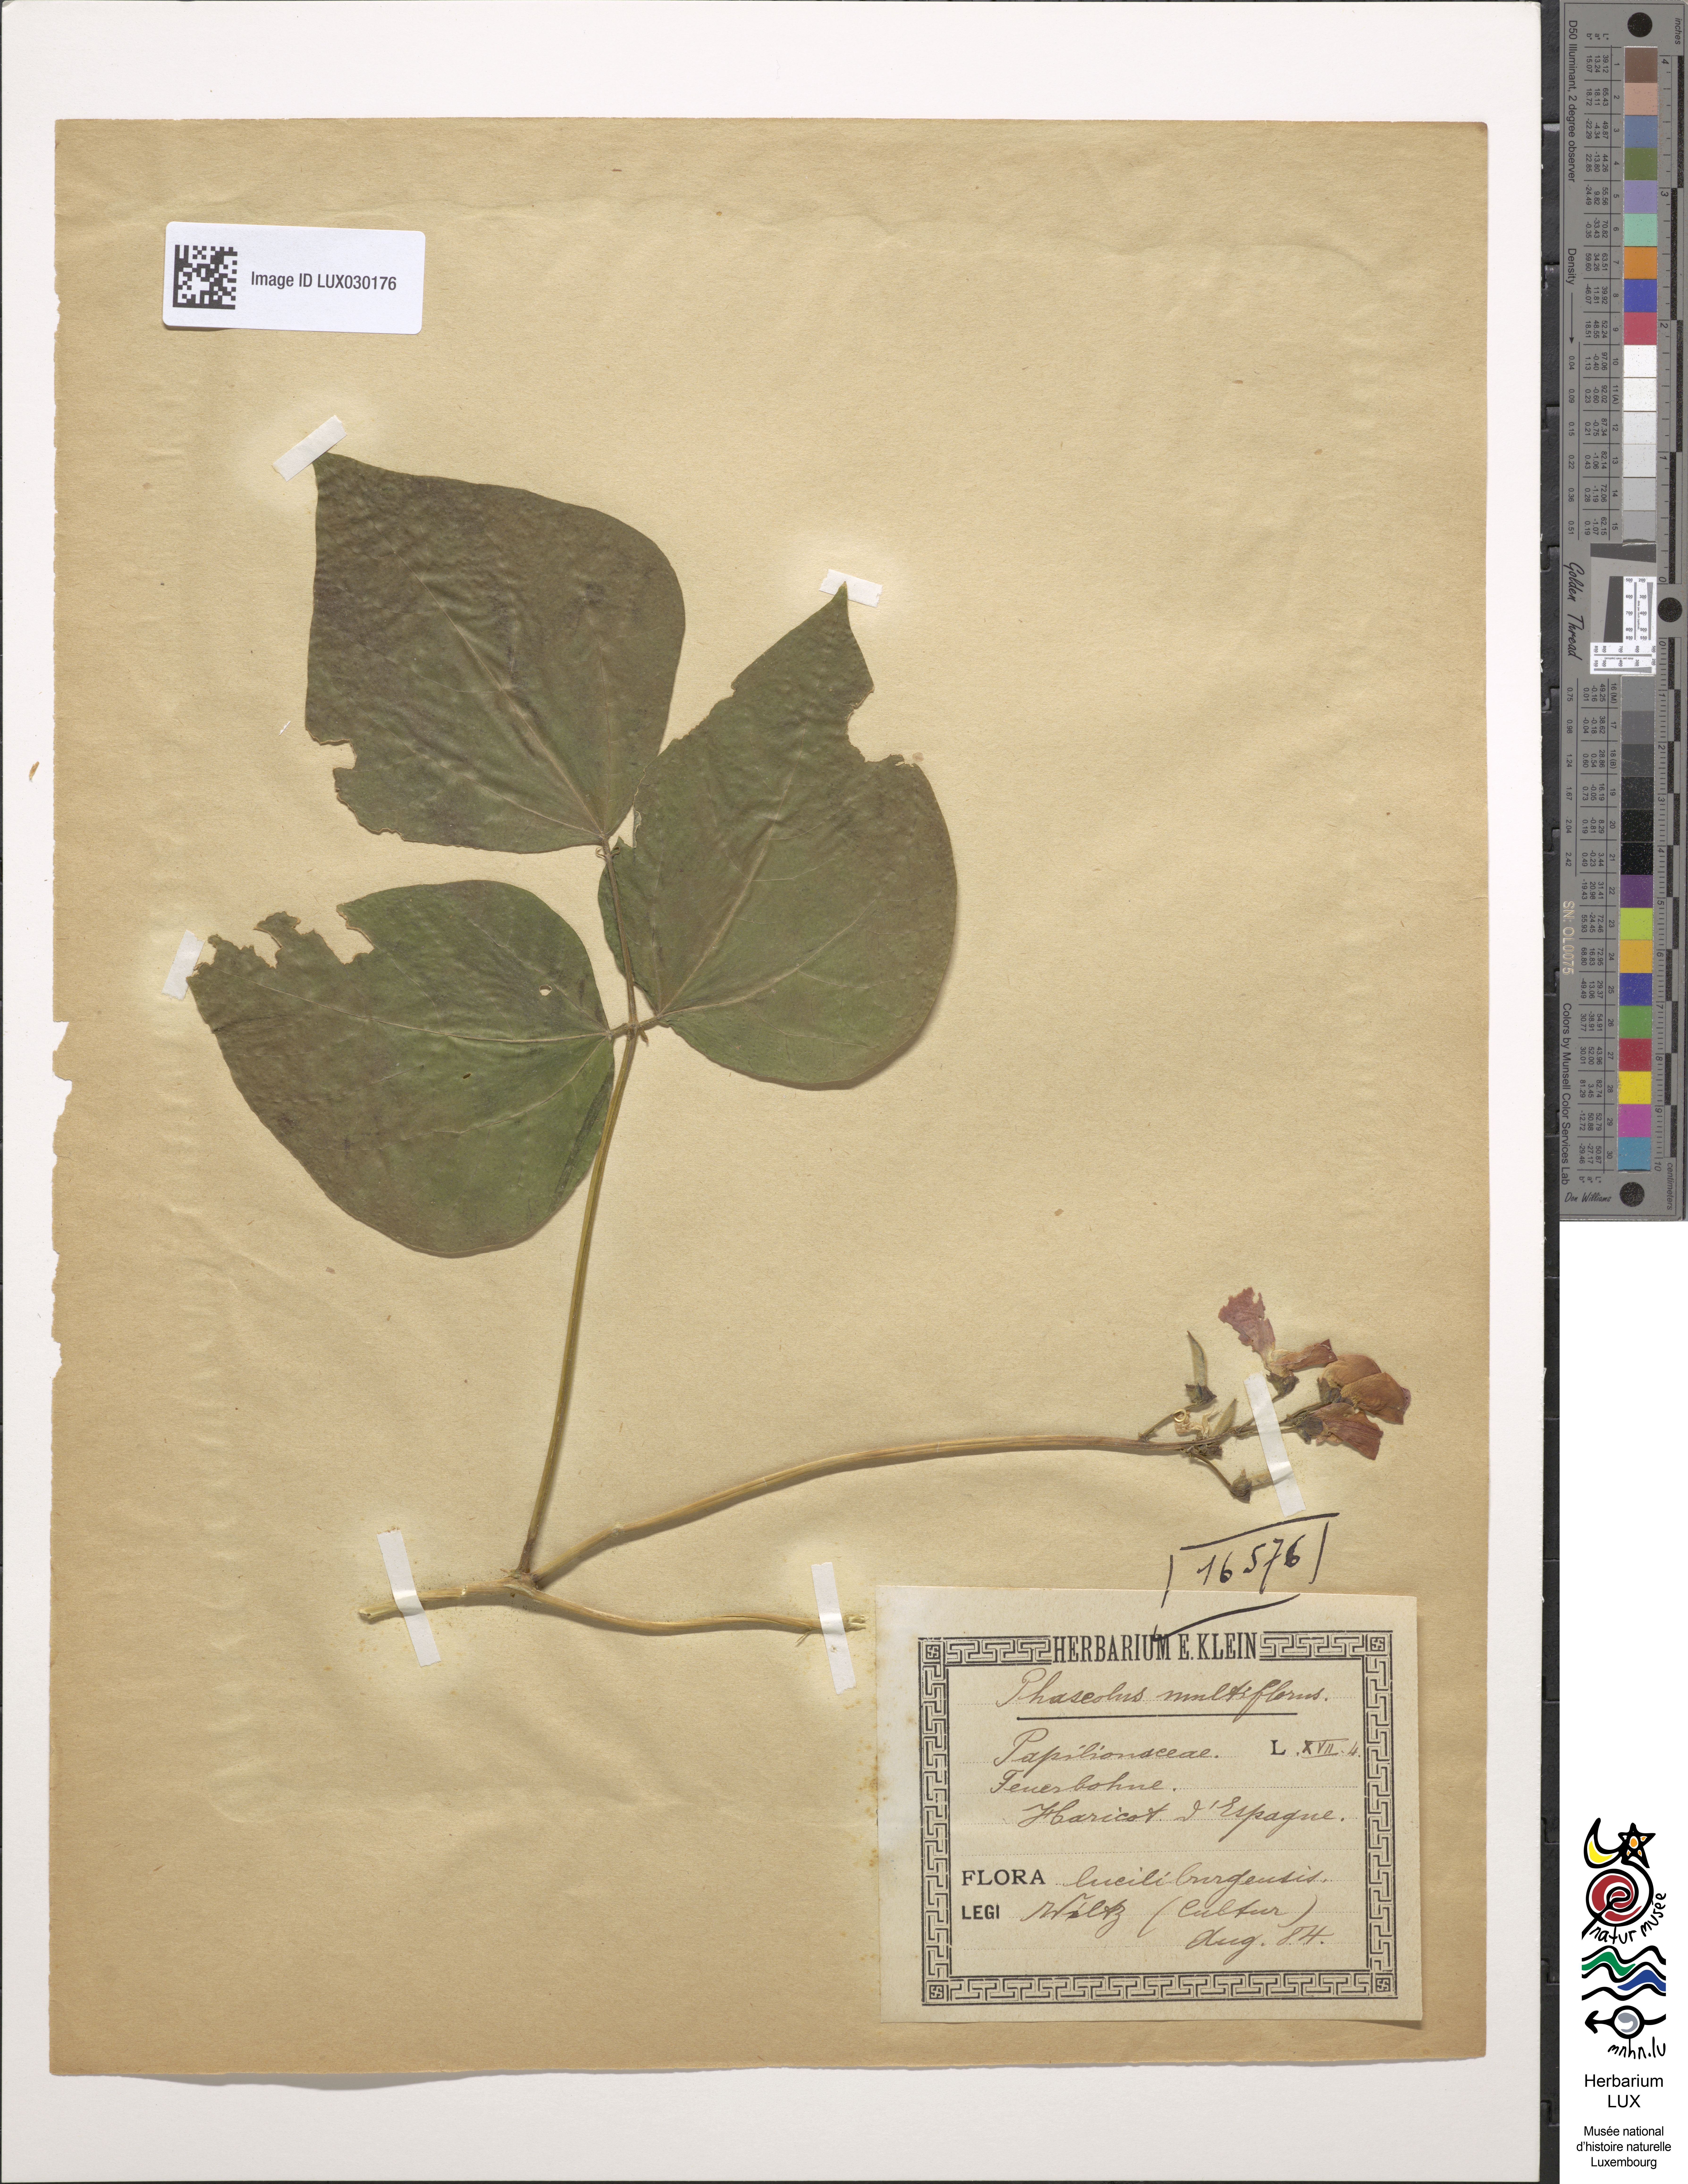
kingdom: Plantae
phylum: Tracheophyta
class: Magnoliopsida
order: Fabales
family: Fabaceae
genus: Phaseolus
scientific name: Phaseolus coccineus
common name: Runner bean
